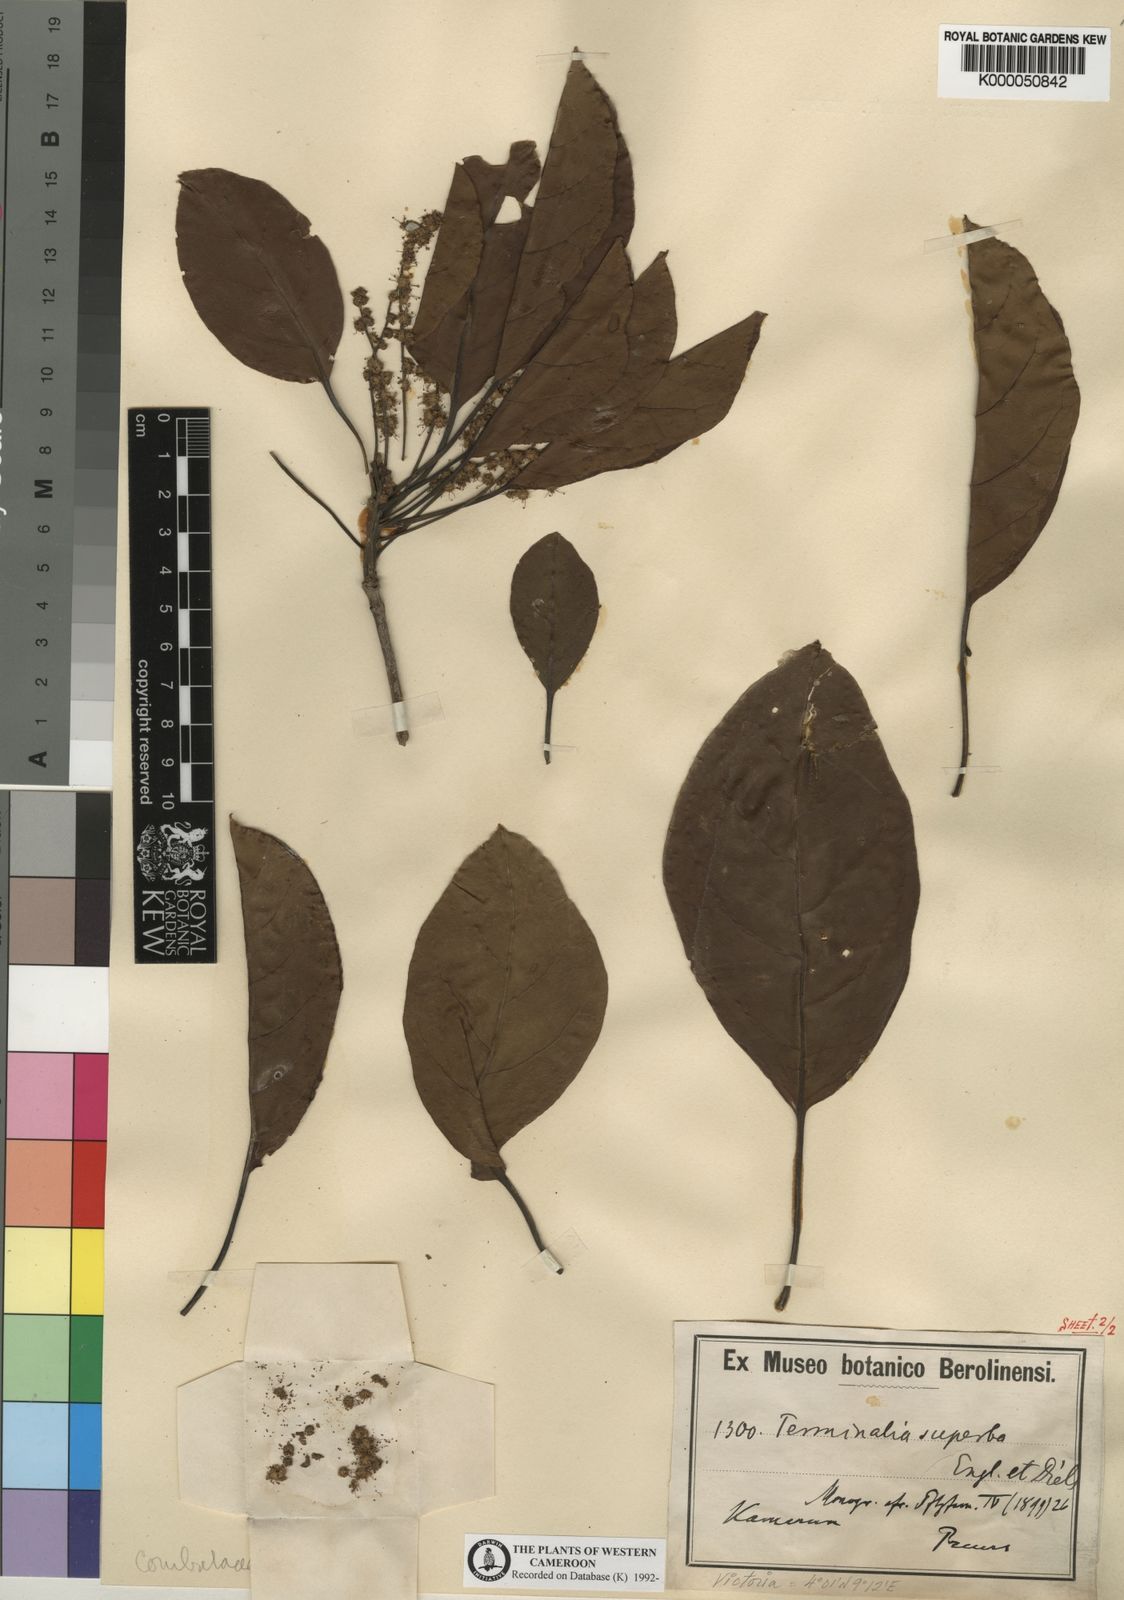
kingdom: Plantae
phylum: Tracheophyta
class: Magnoliopsida
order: Myrtales
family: Combretaceae
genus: Terminalia
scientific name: Terminalia superba
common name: White afara
